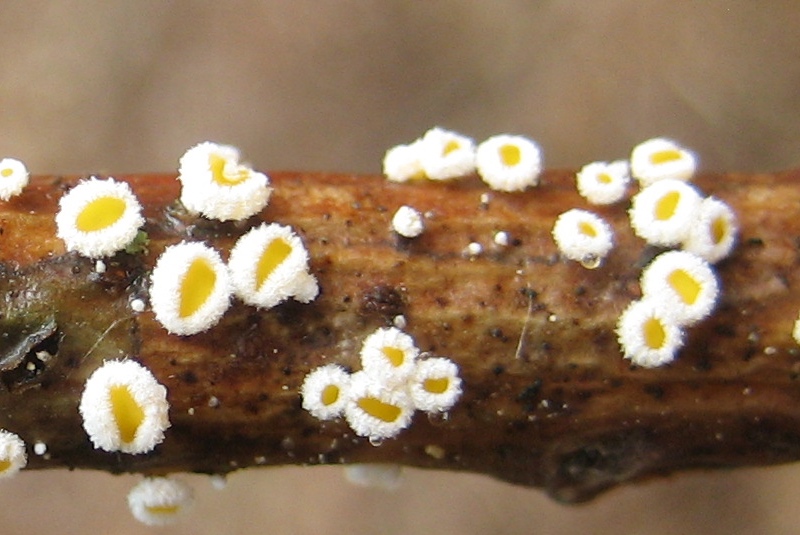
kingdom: Fungi
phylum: Ascomycota
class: Leotiomycetes
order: Helotiales
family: Lachnaceae
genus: Capitotricha
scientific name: Capitotricha bicolor
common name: prægtig frynseskive
